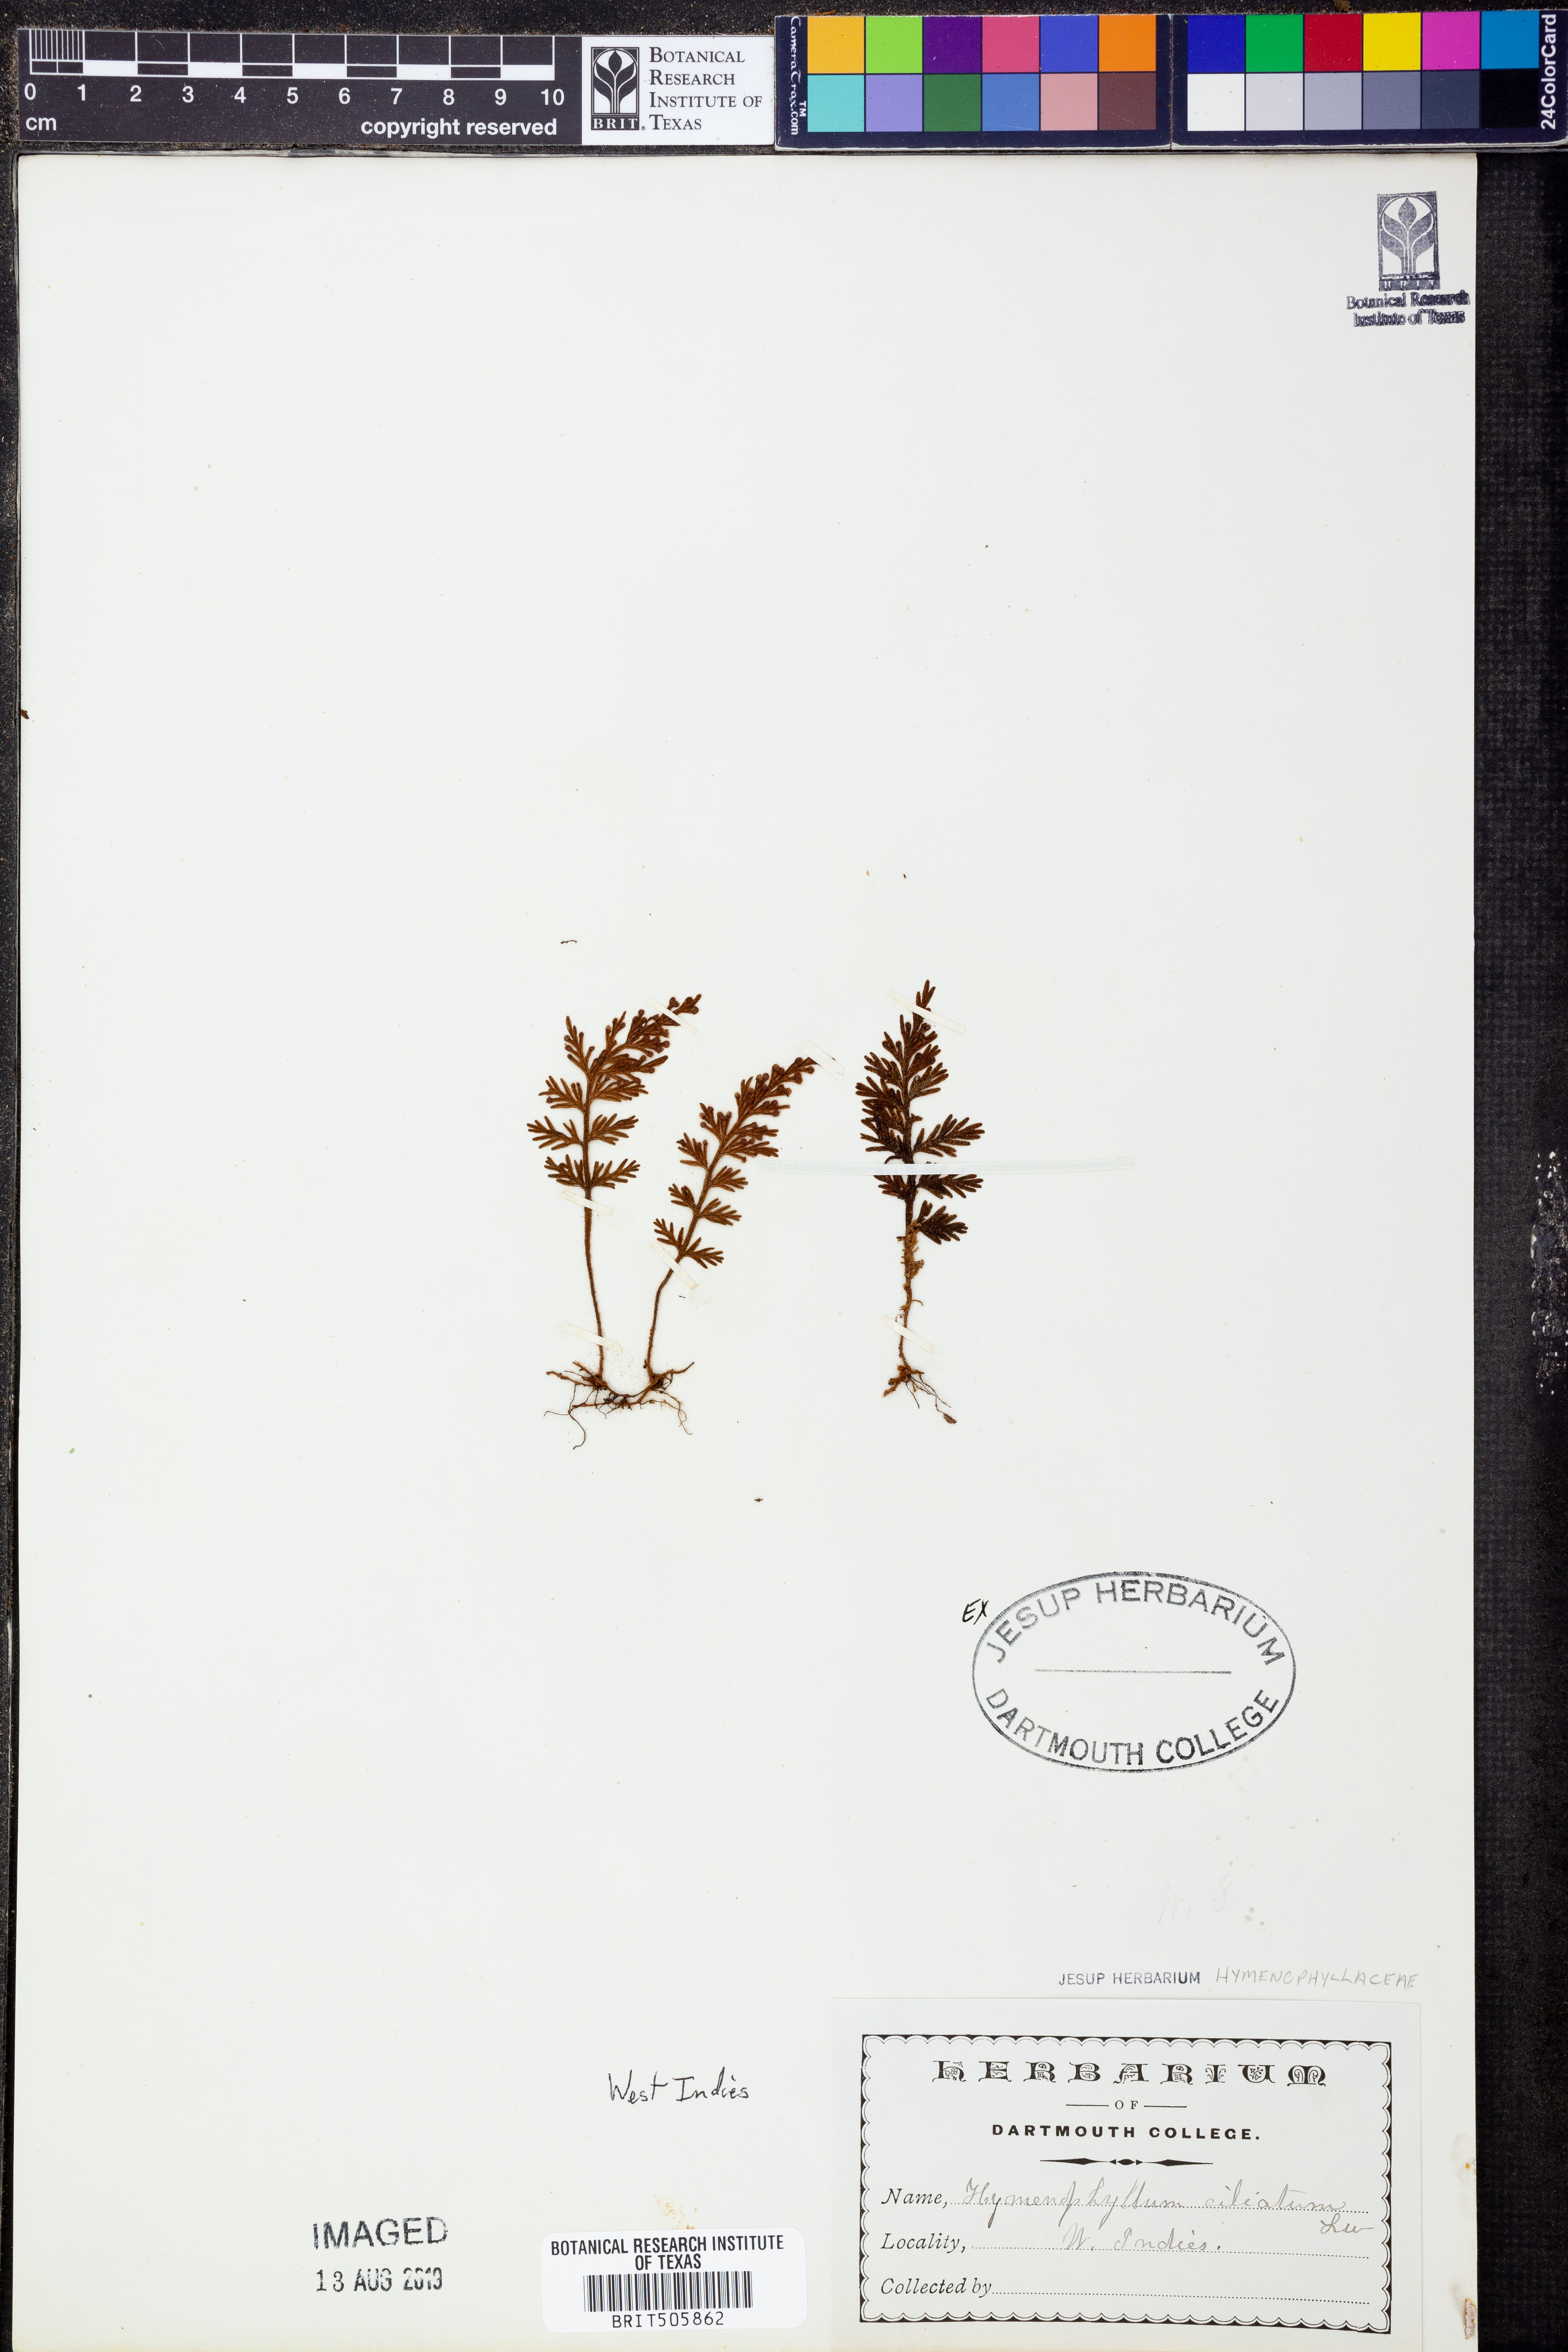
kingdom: Plantae
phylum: Tracheophyta
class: Polypodiopsida
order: Hymenophyllales
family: Hymenophyllaceae
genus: Hymenophyllum
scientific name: Hymenophyllum hirsutum
